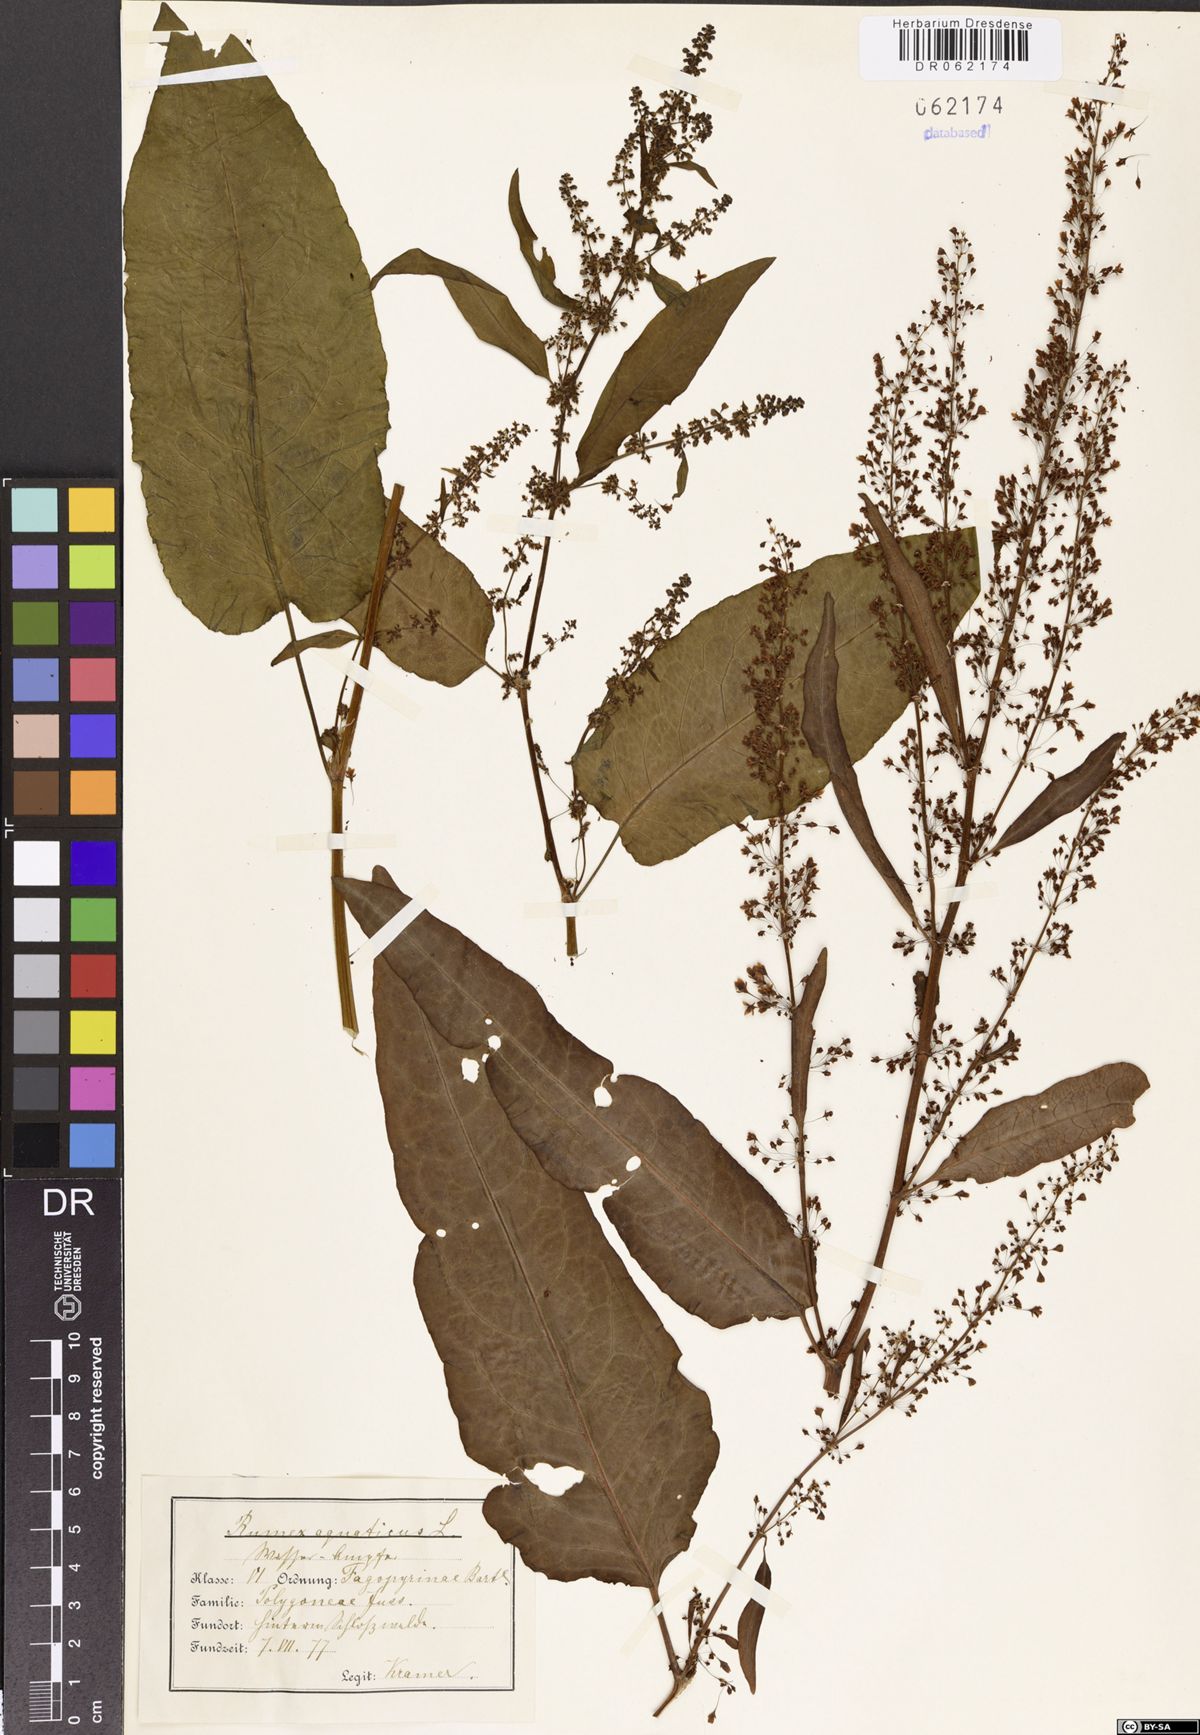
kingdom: Plantae
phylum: Tracheophyta
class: Magnoliopsida
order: Caryophyllales
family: Polygonaceae
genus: Rumex
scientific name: Rumex aquaticus
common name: Scottish dock
